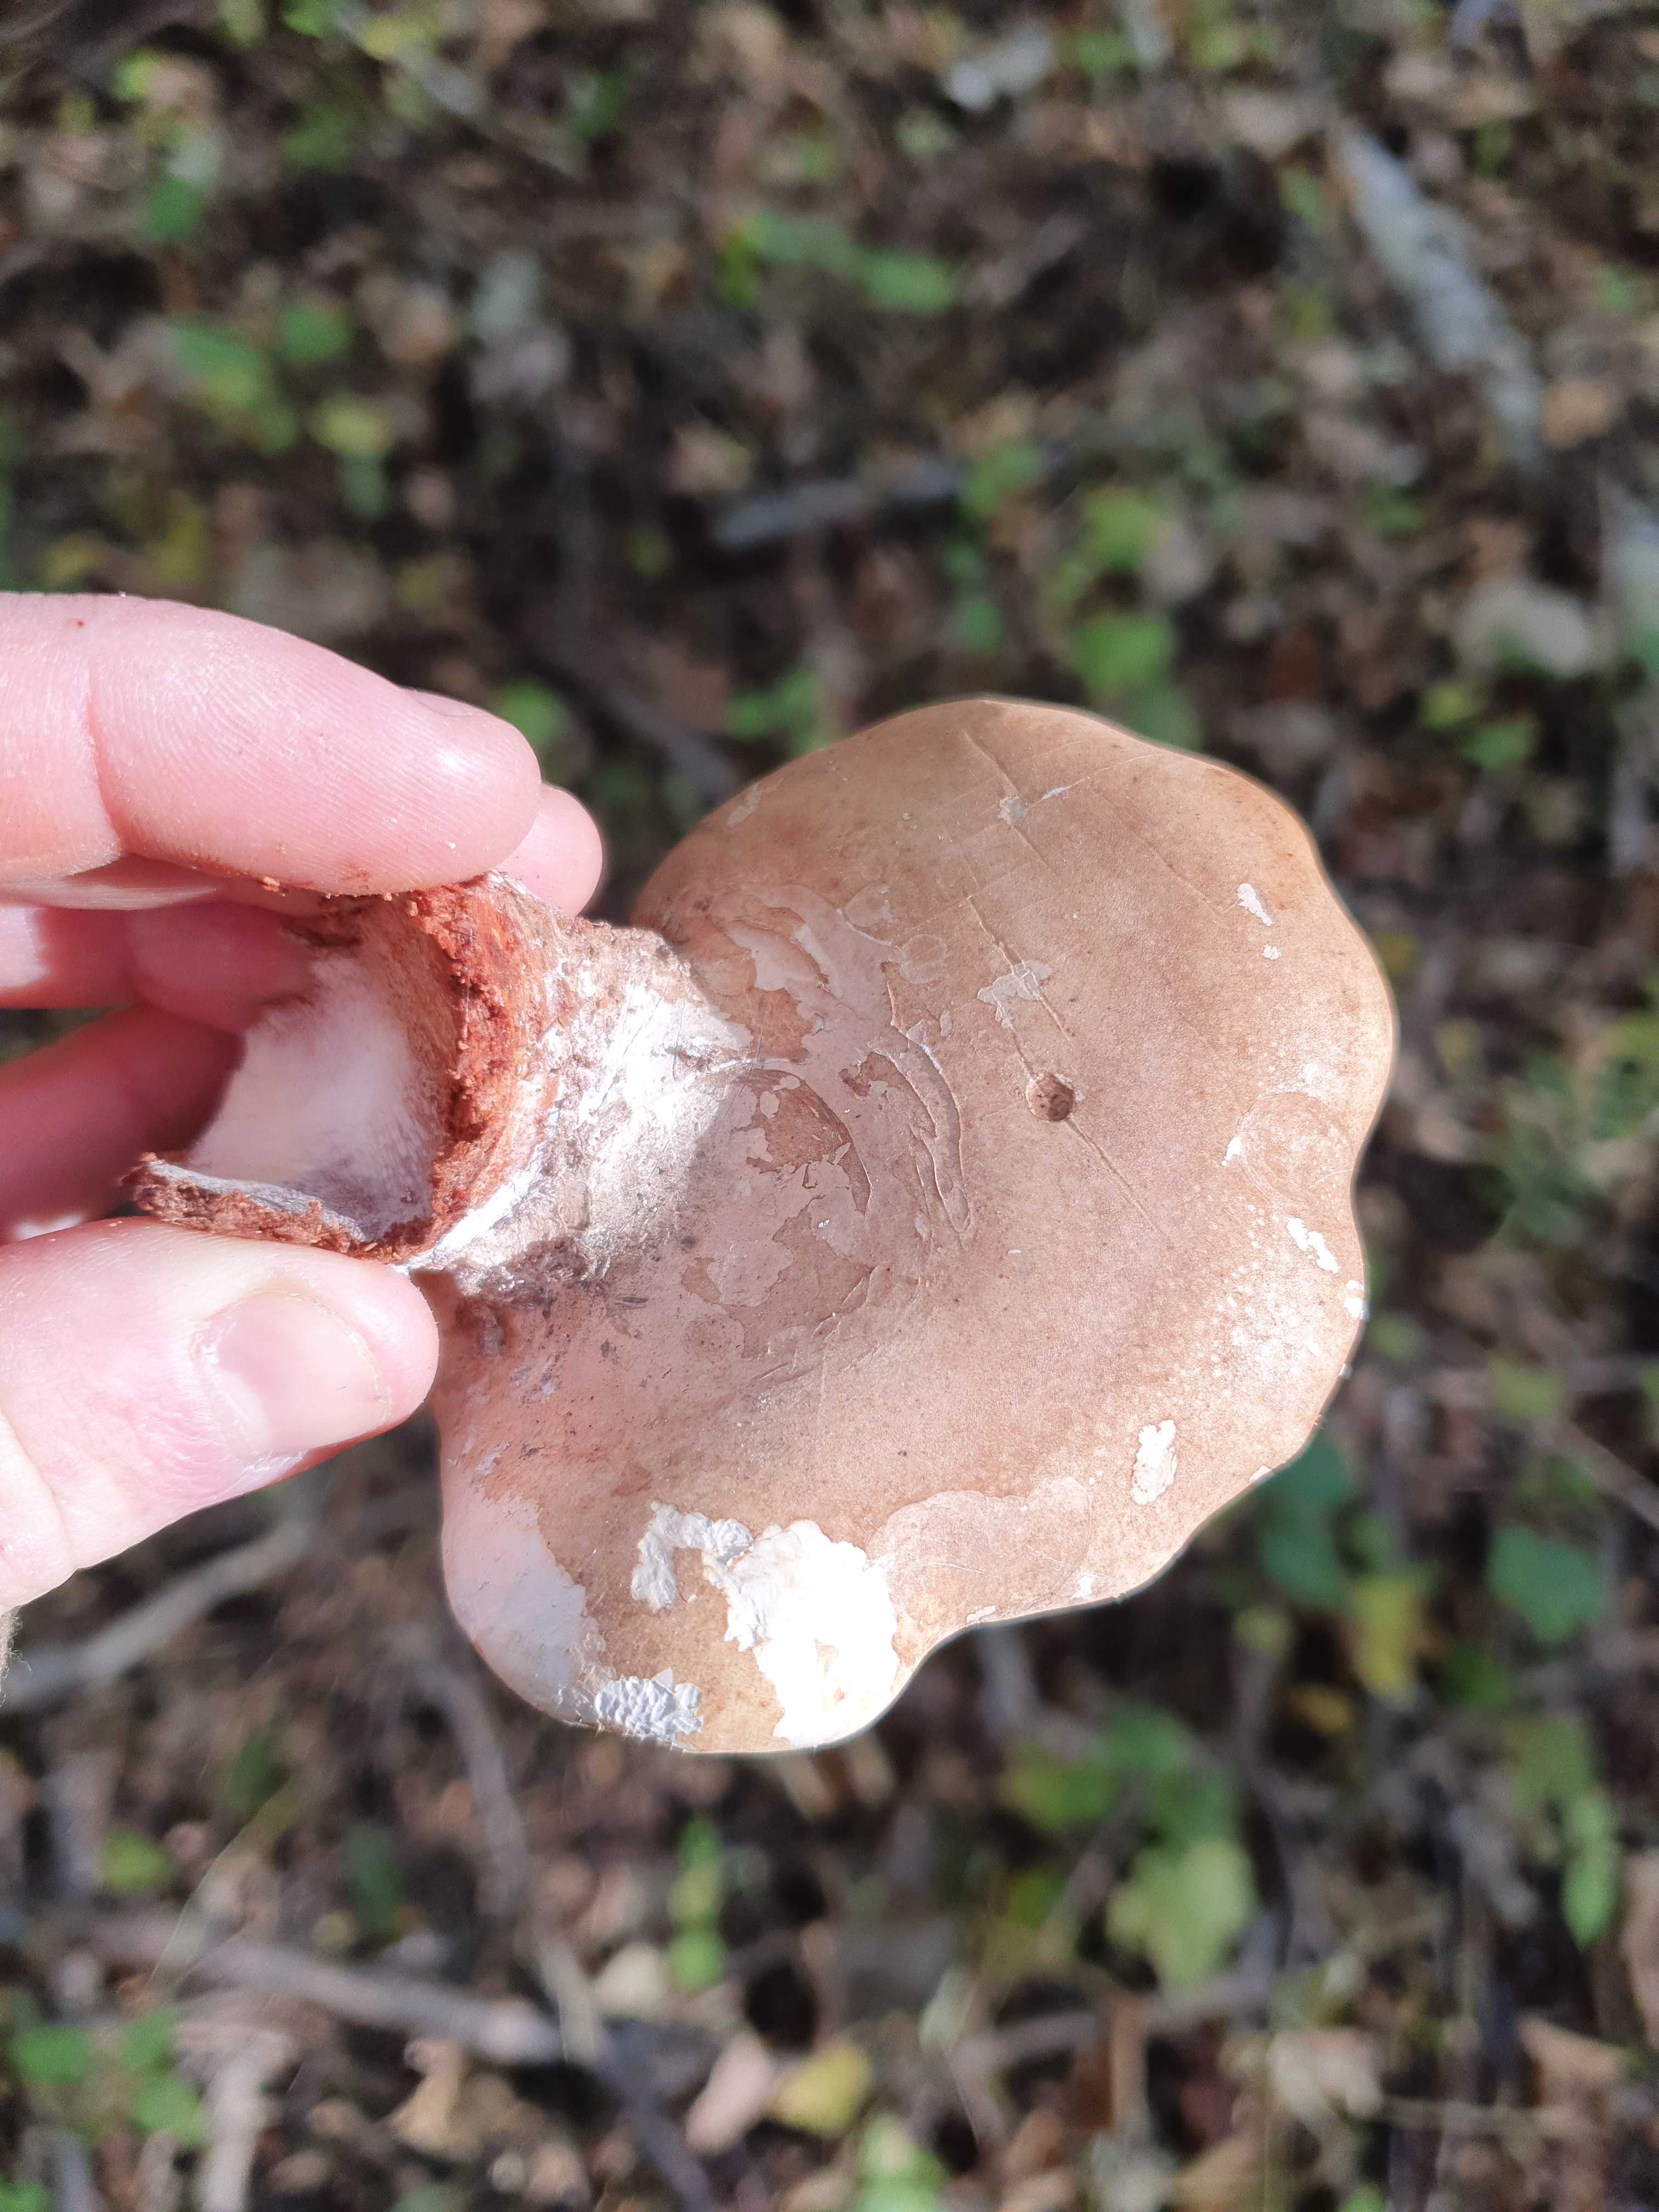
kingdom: Fungi
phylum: Basidiomycota
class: Agaricomycetes
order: Polyporales
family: Fomitopsidaceae
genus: Fomitopsis
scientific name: Fomitopsis betulina
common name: birkeporesvamp
